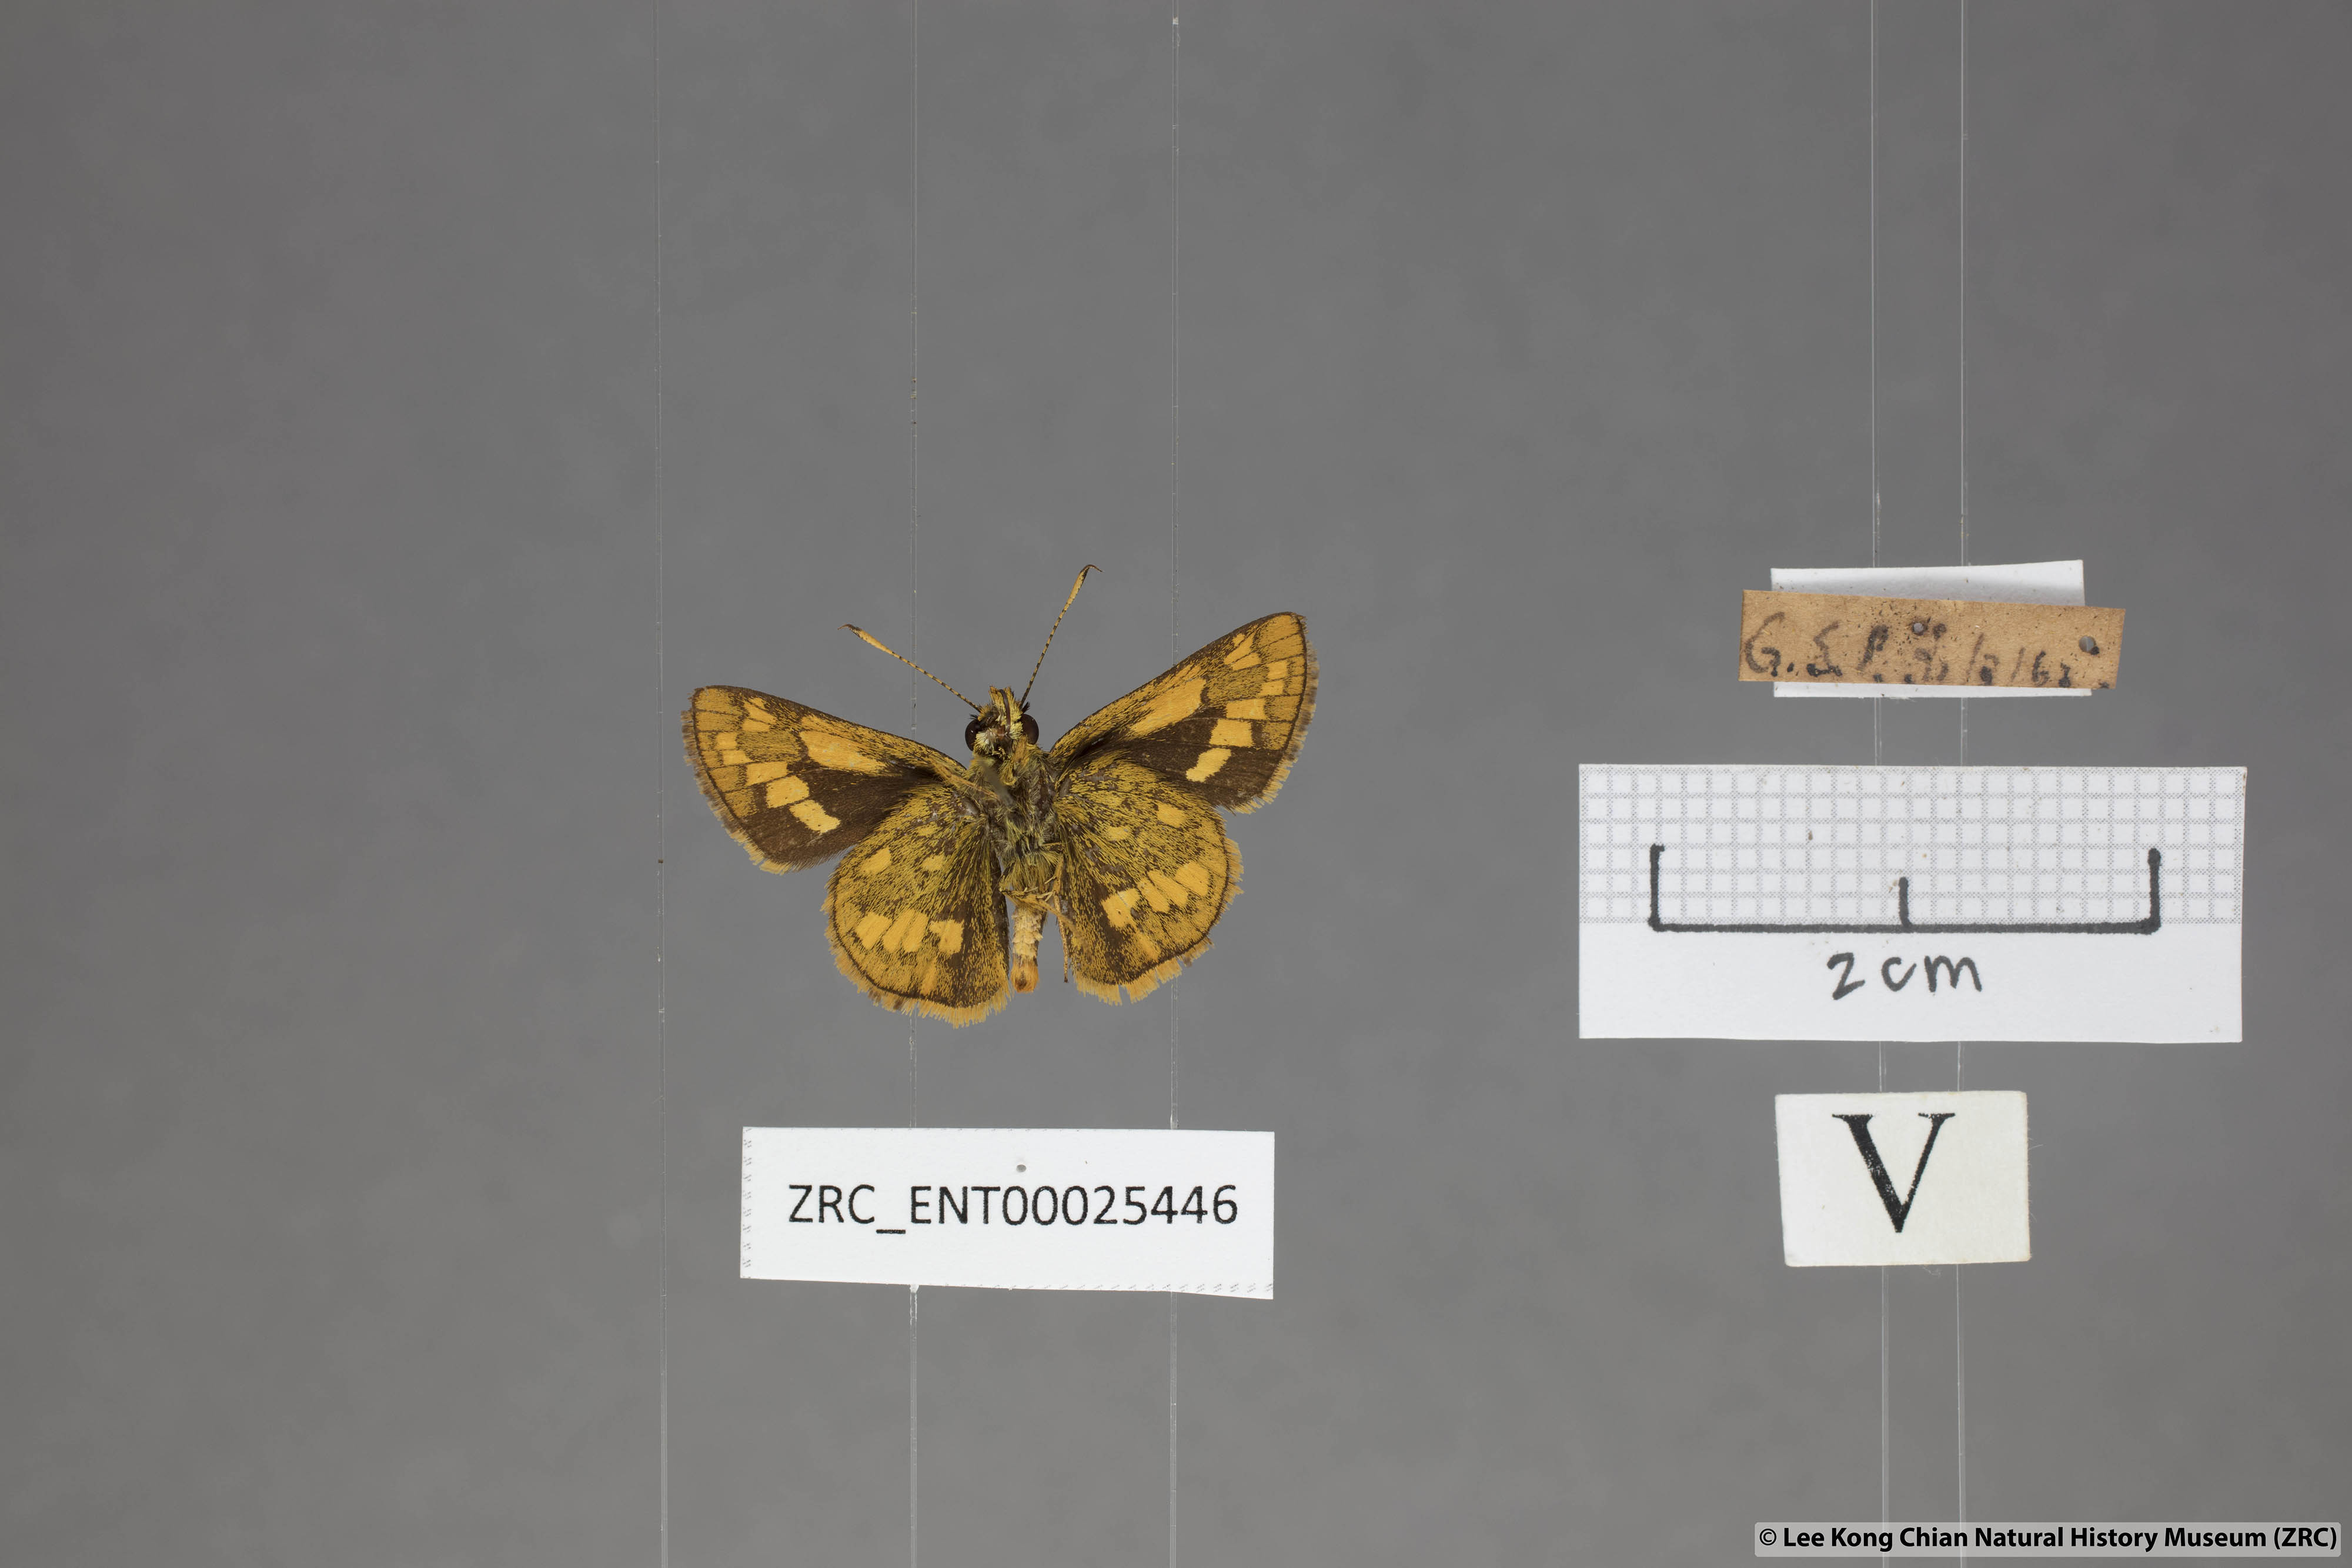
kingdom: Animalia
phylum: Arthropoda
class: Insecta
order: Lepidoptera
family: Hesperiidae
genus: Potanthus
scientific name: Potanthus omaha
